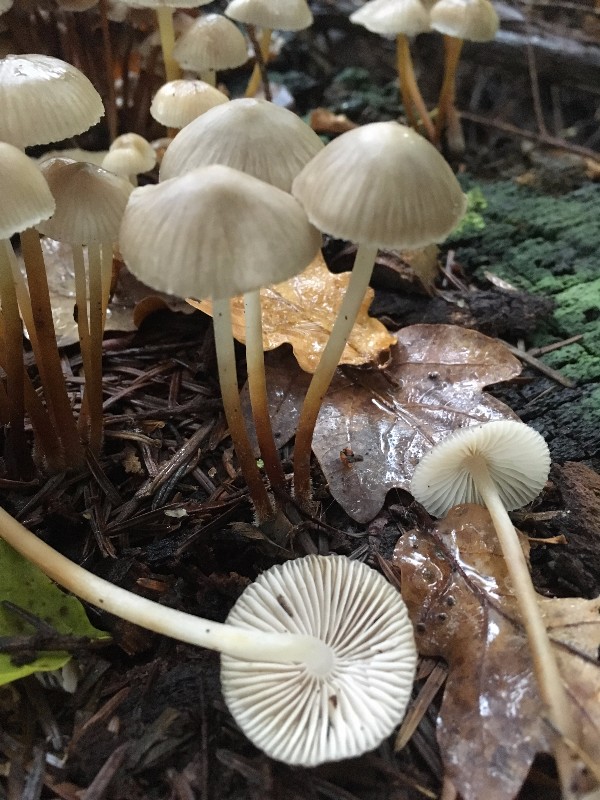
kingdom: Fungi
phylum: Basidiomycota
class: Agaricomycetes
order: Agaricales
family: Mycenaceae
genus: Mycena
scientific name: Mycena inclinata
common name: nikkende huesvamp
